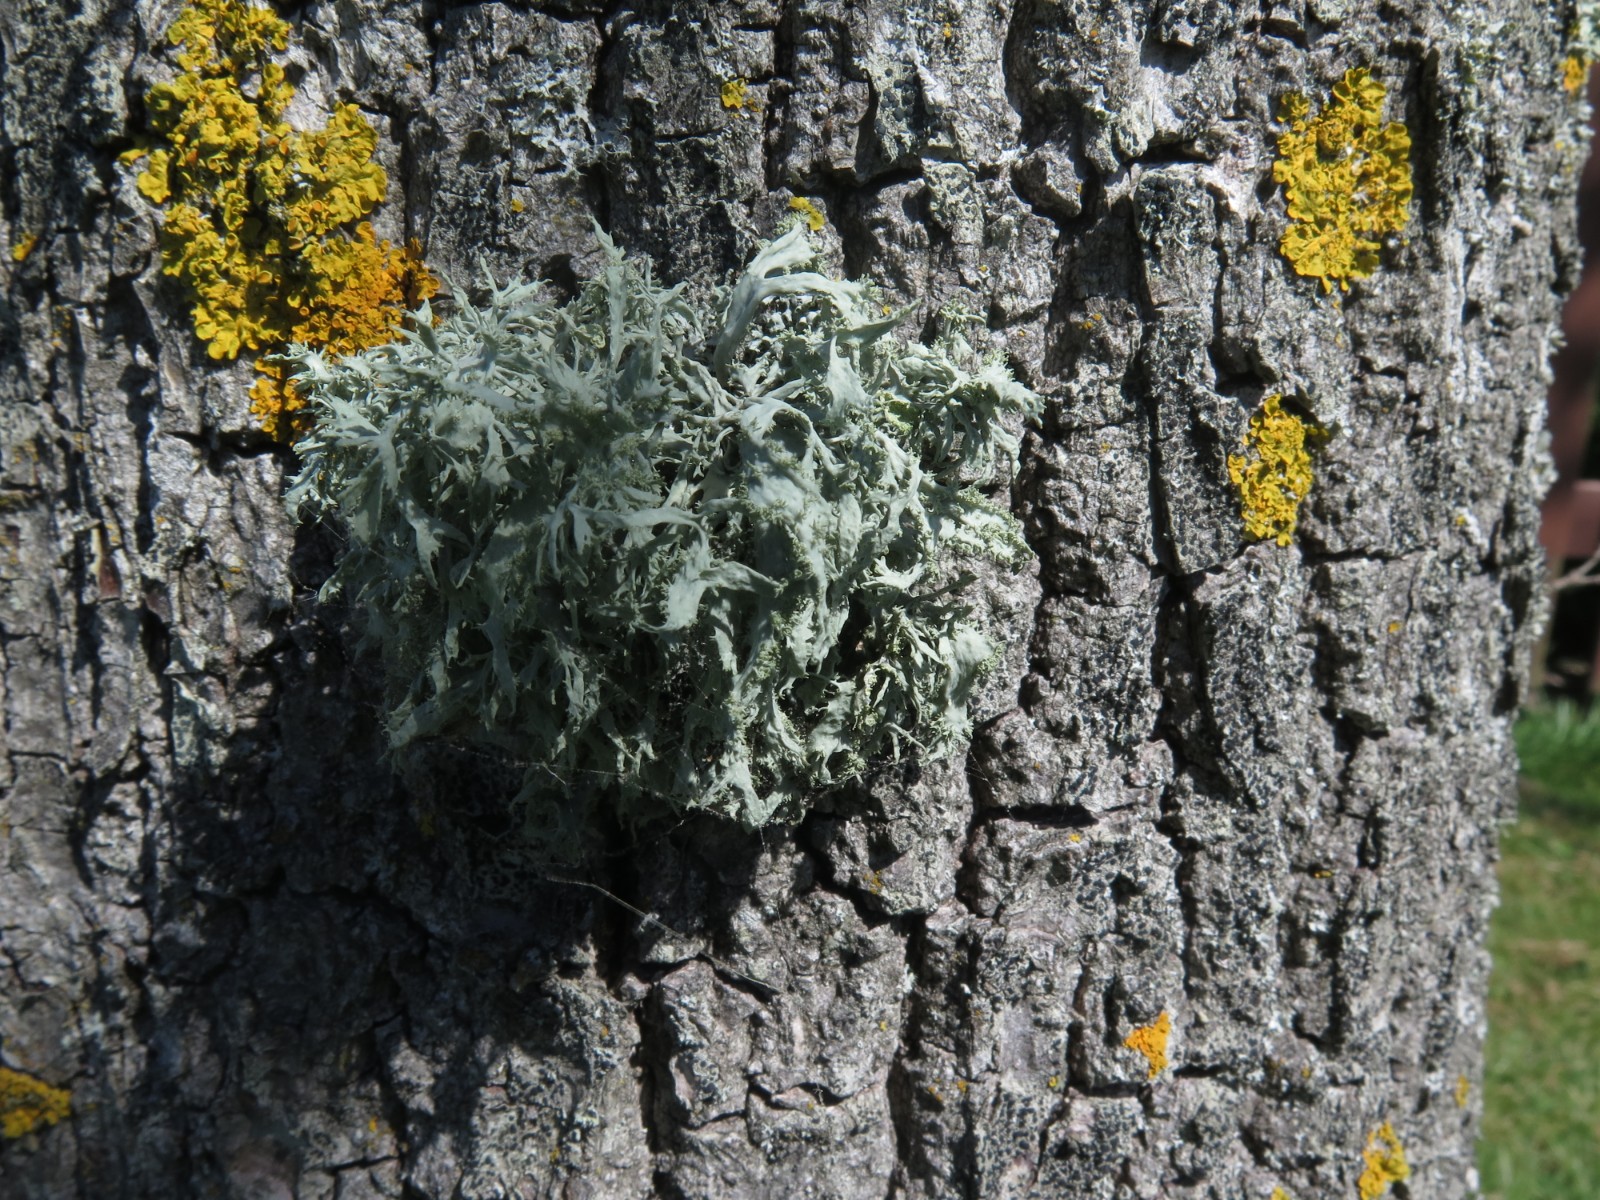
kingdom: Fungi
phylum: Ascomycota
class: Lecanoromycetes
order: Lecanorales
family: Parmeliaceae
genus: Evernia
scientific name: Evernia prunastri
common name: almindelig slåenlav
